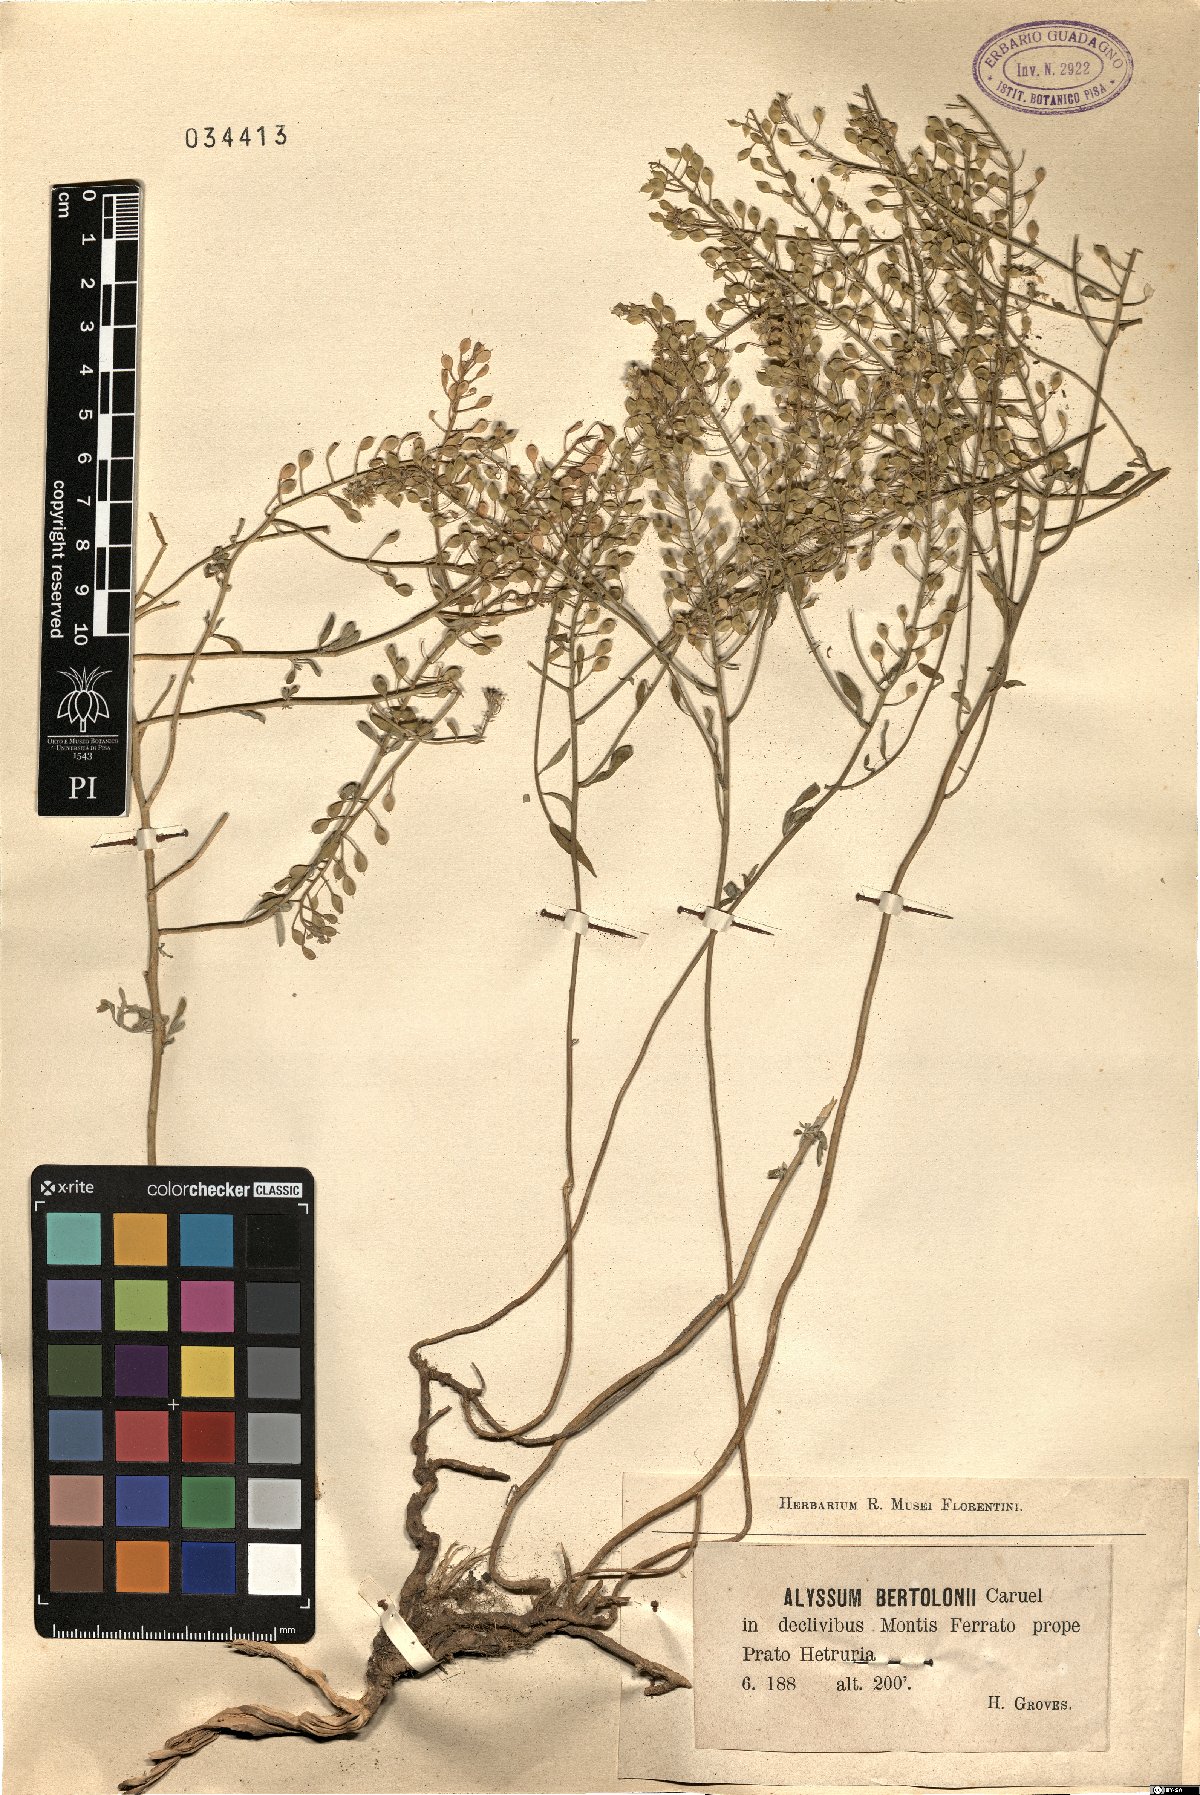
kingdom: Plantae
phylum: Tracheophyta
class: Magnoliopsida
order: Brassicales
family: Brassicaceae
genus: Odontarrhena
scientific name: Odontarrhena bertolonii
